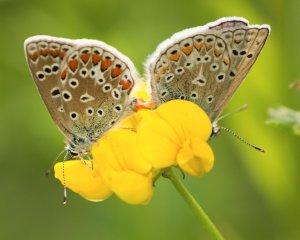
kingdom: Animalia
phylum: Arthropoda
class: Insecta
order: Lepidoptera
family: Lycaenidae
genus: Polyommatus
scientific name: Polyommatus icarus
